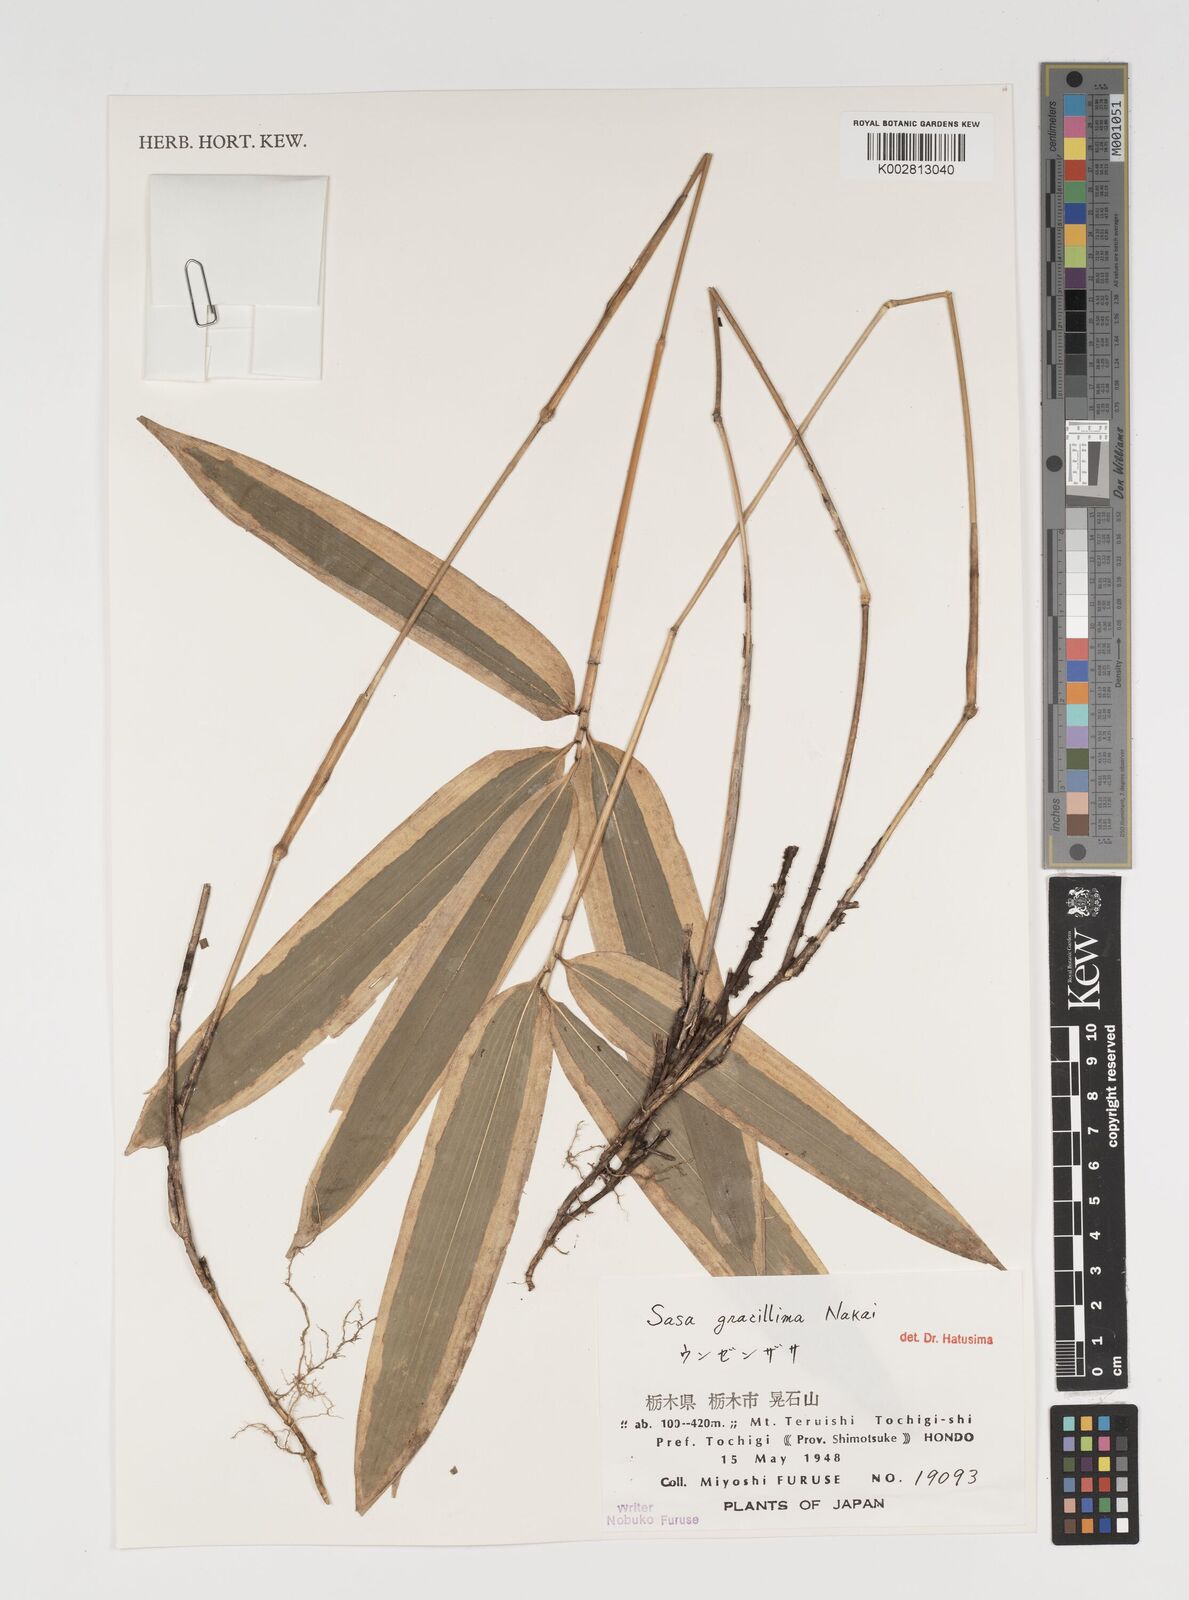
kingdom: Plantae
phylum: Tracheophyta
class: Liliopsida
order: Poales
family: Poaceae
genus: Sasa
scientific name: Sasa gracillima
